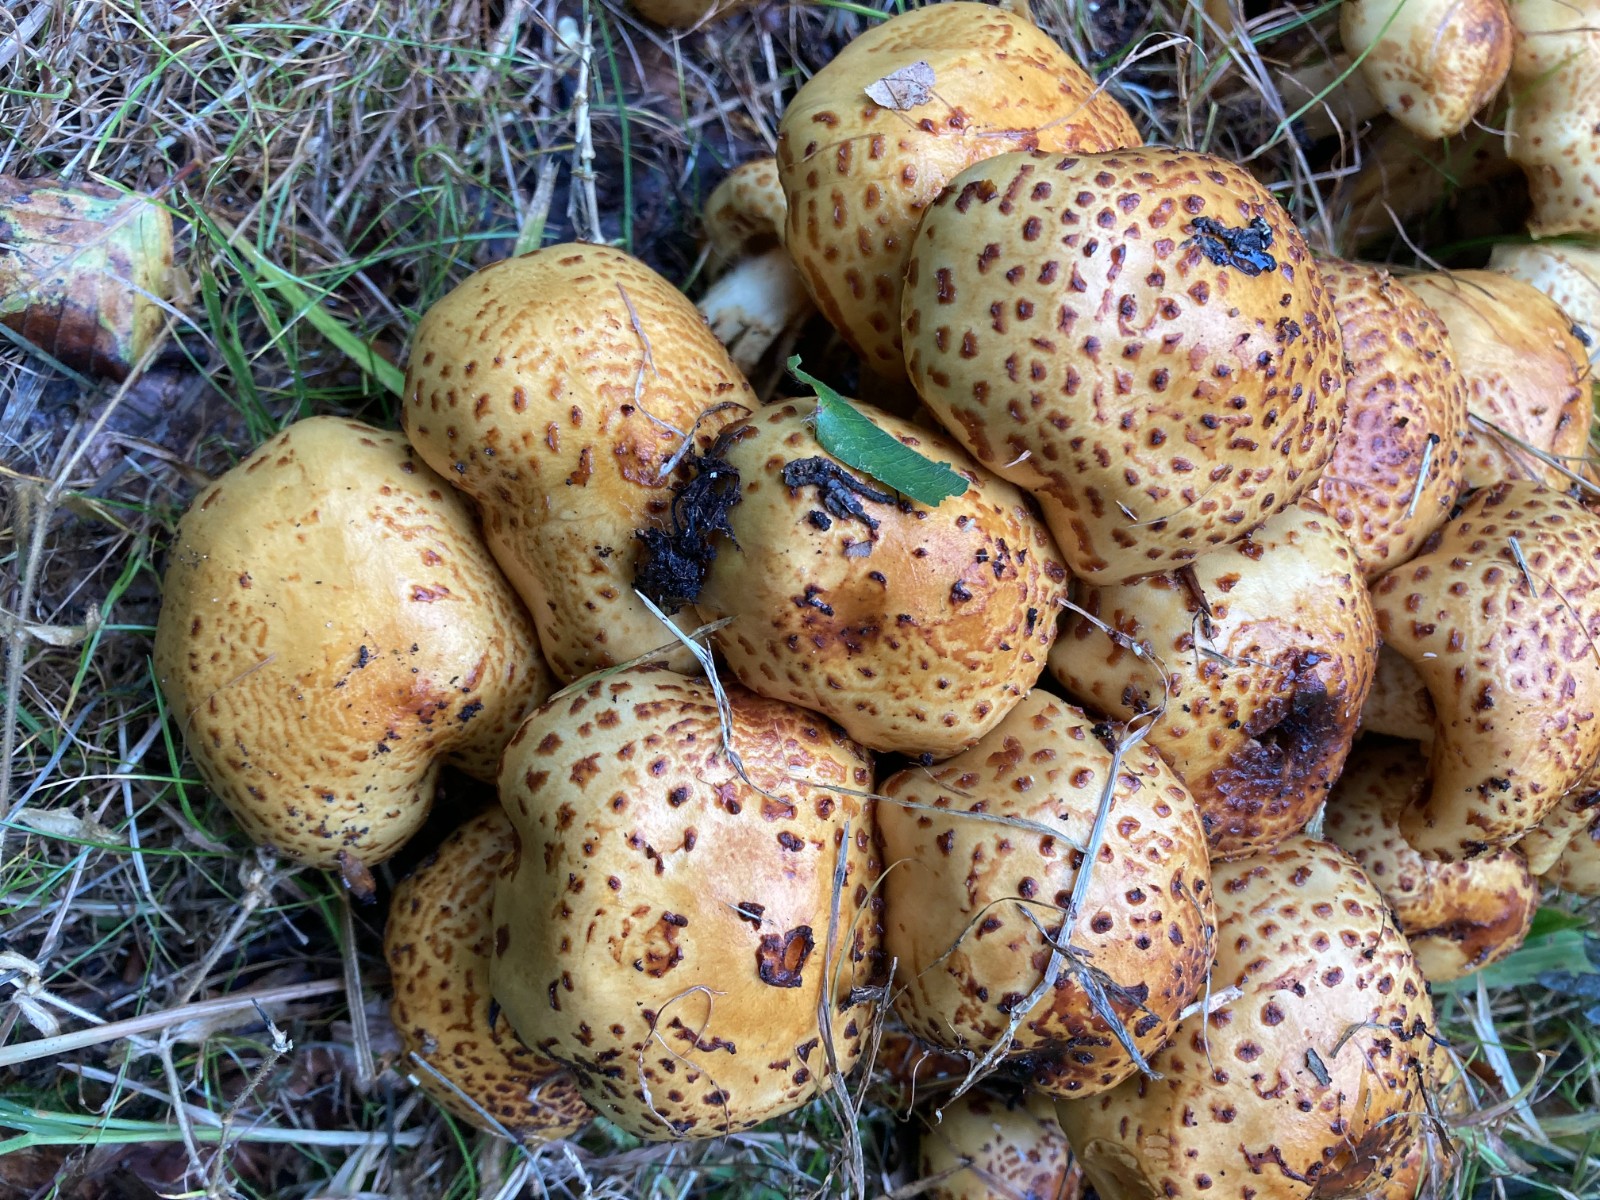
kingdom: Fungi
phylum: Basidiomycota
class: Agaricomycetes
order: Agaricales
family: Strophariaceae
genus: Pholiota
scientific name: Pholiota jahnii
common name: slimet skælhat
